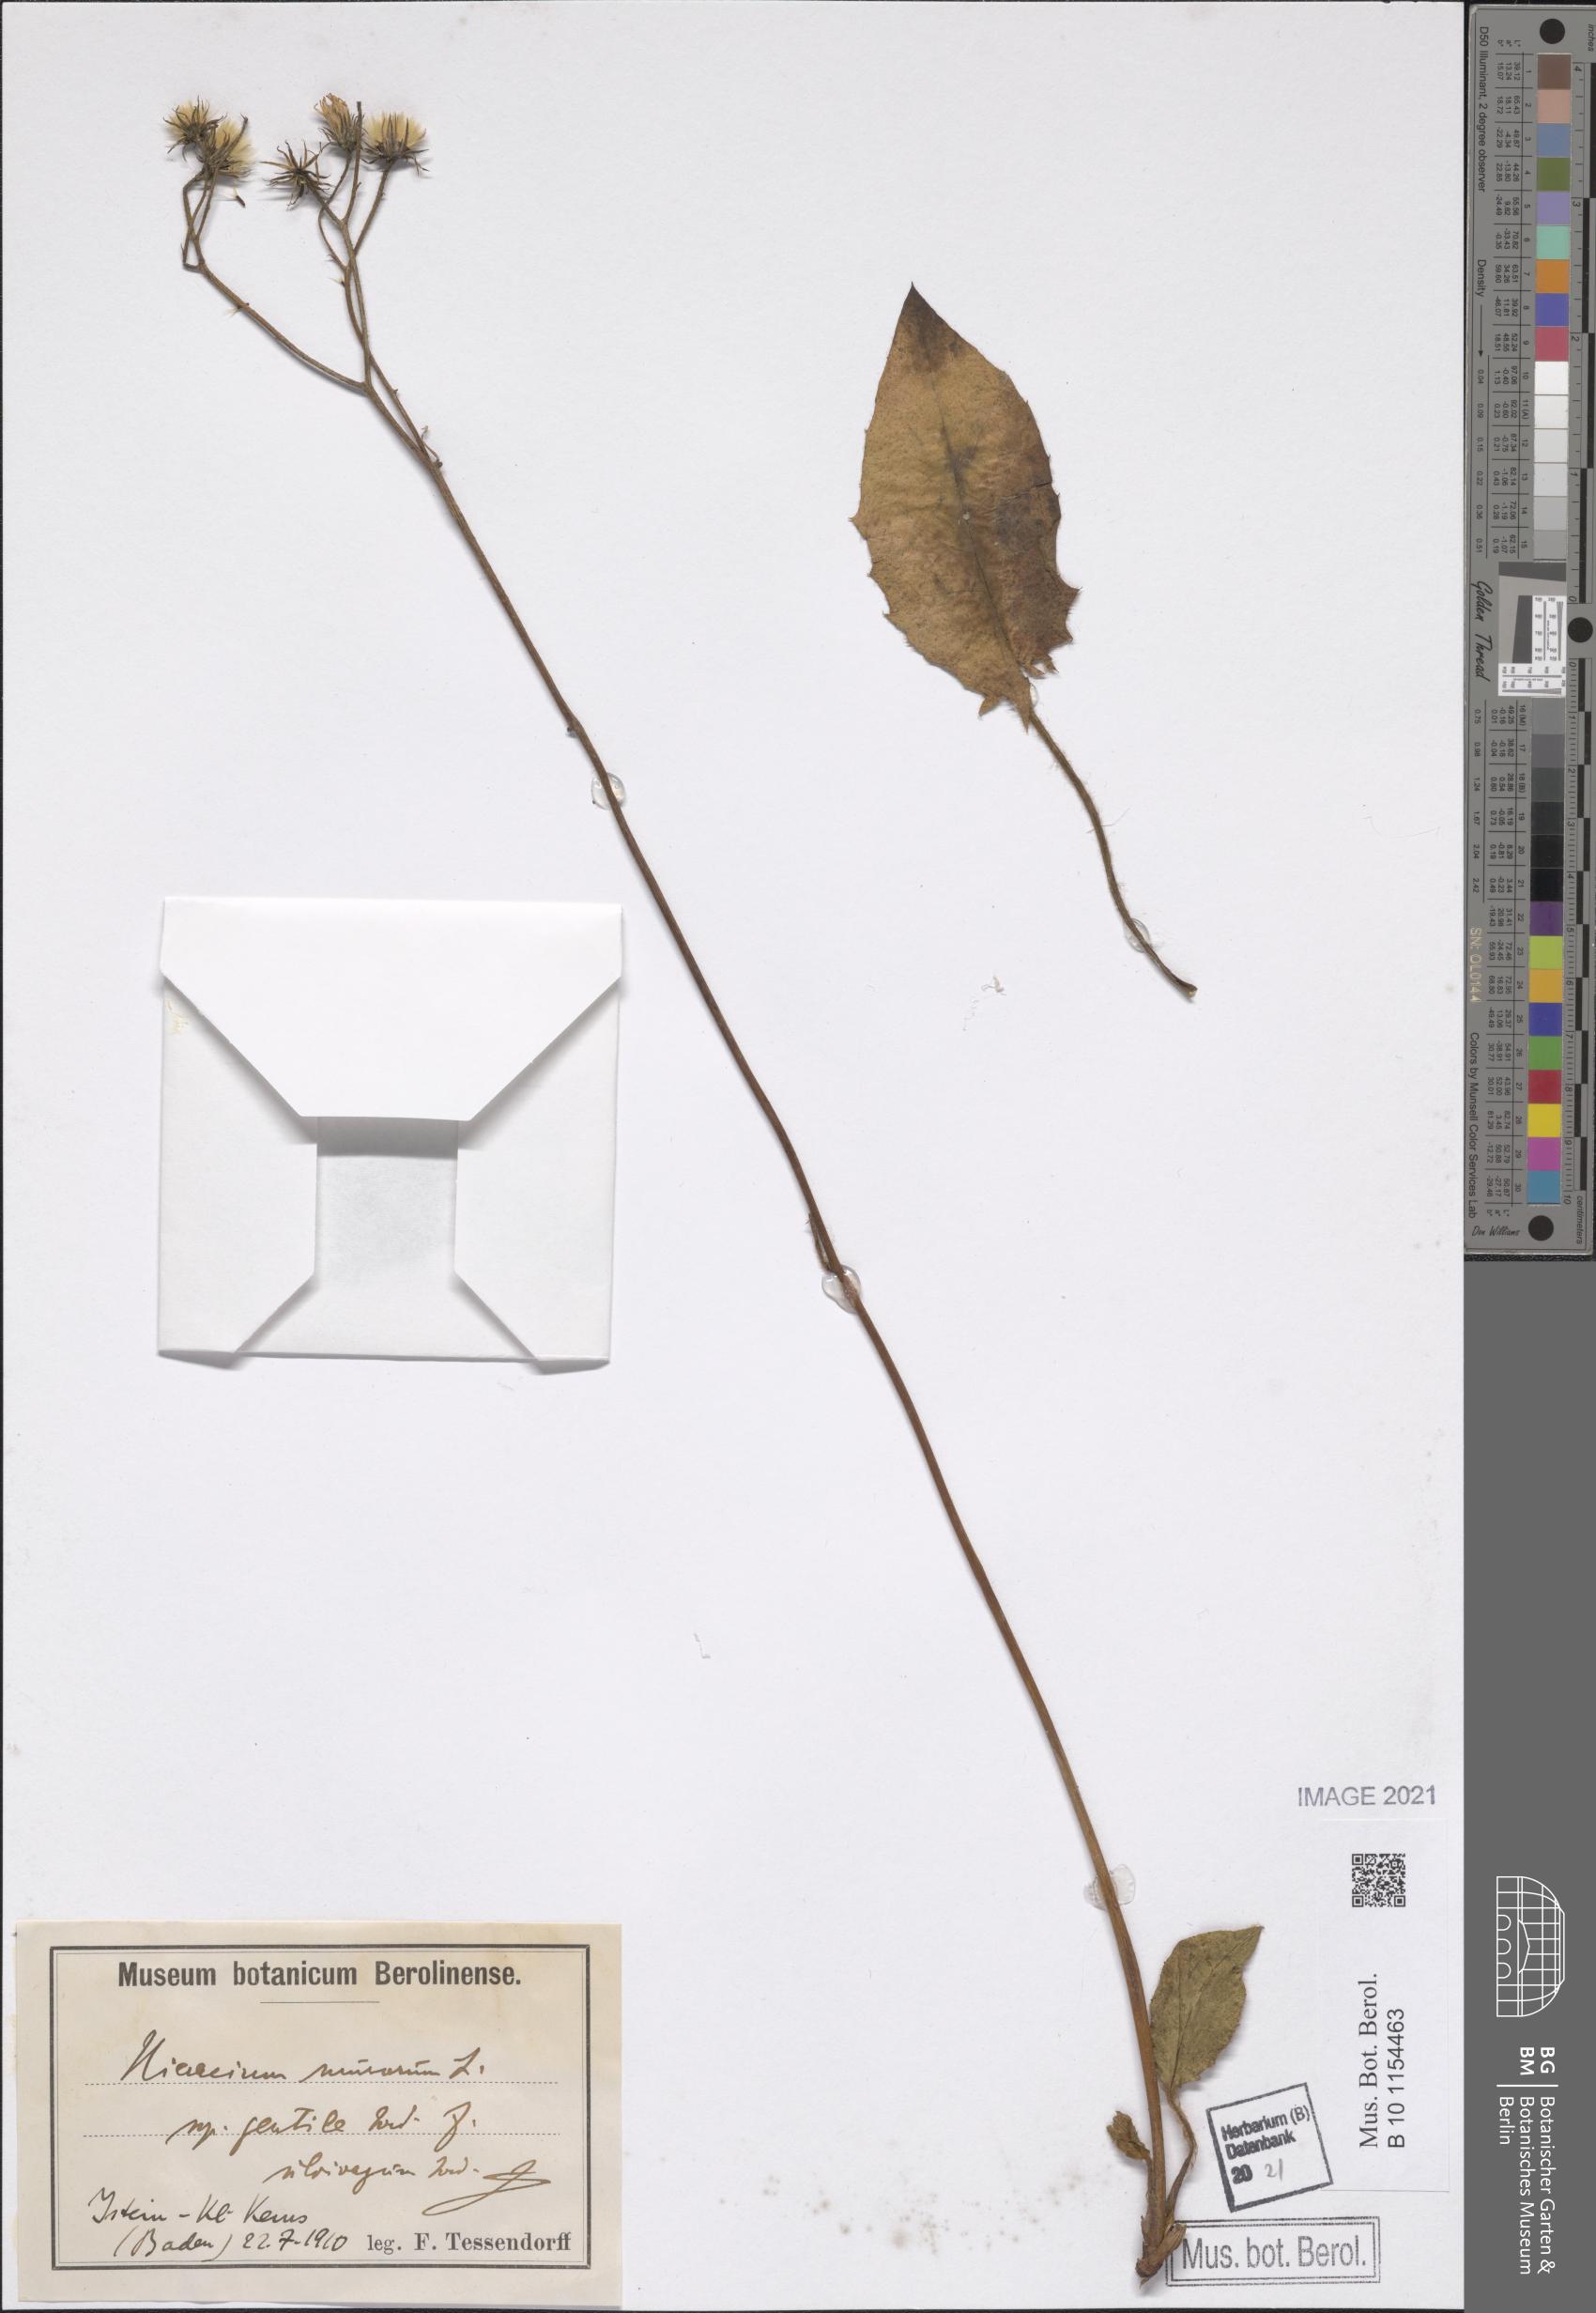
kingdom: Plantae
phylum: Tracheophyta
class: Magnoliopsida
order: Asterales
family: Asteraceae
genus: Hieracium
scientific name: Hieracium murorum
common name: Wall hawkweed
